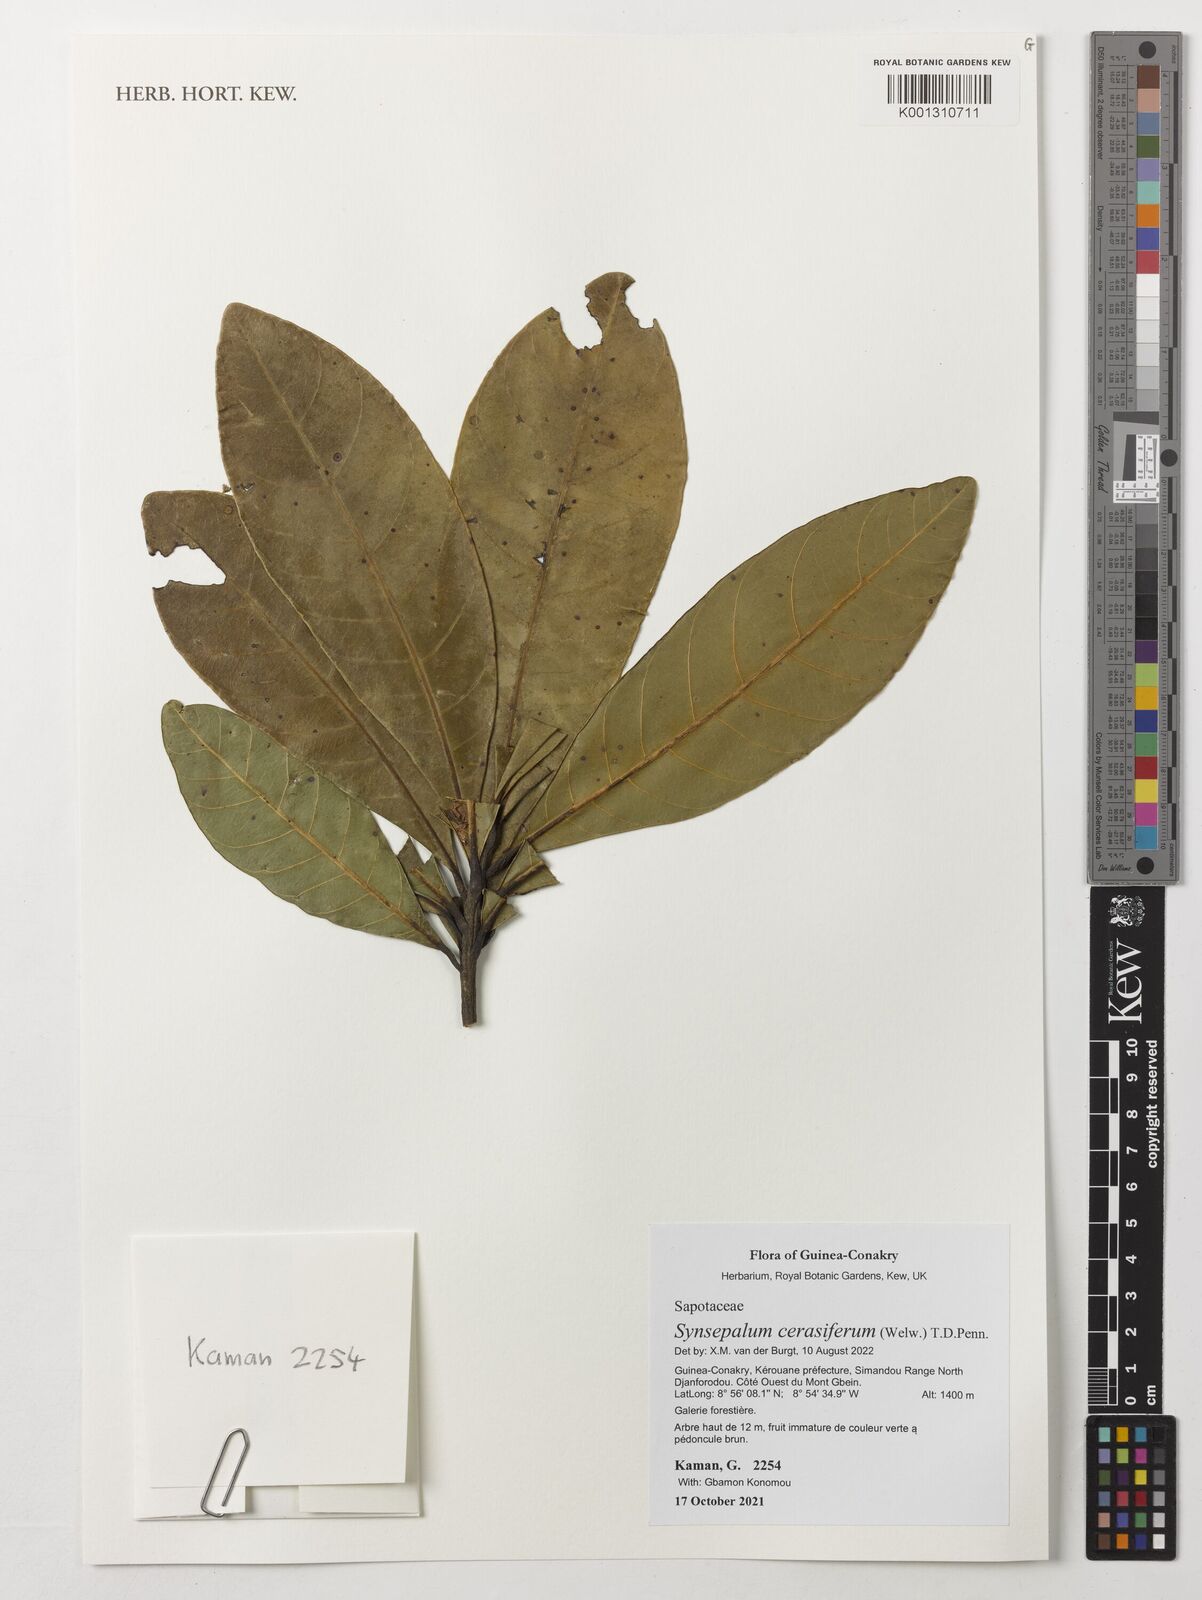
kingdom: Plantae
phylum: Tracheophyta
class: Magnoliopsida
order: Ericales
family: Sapotaceae
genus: Synsepalum
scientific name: Synsepalum cerasiferum
